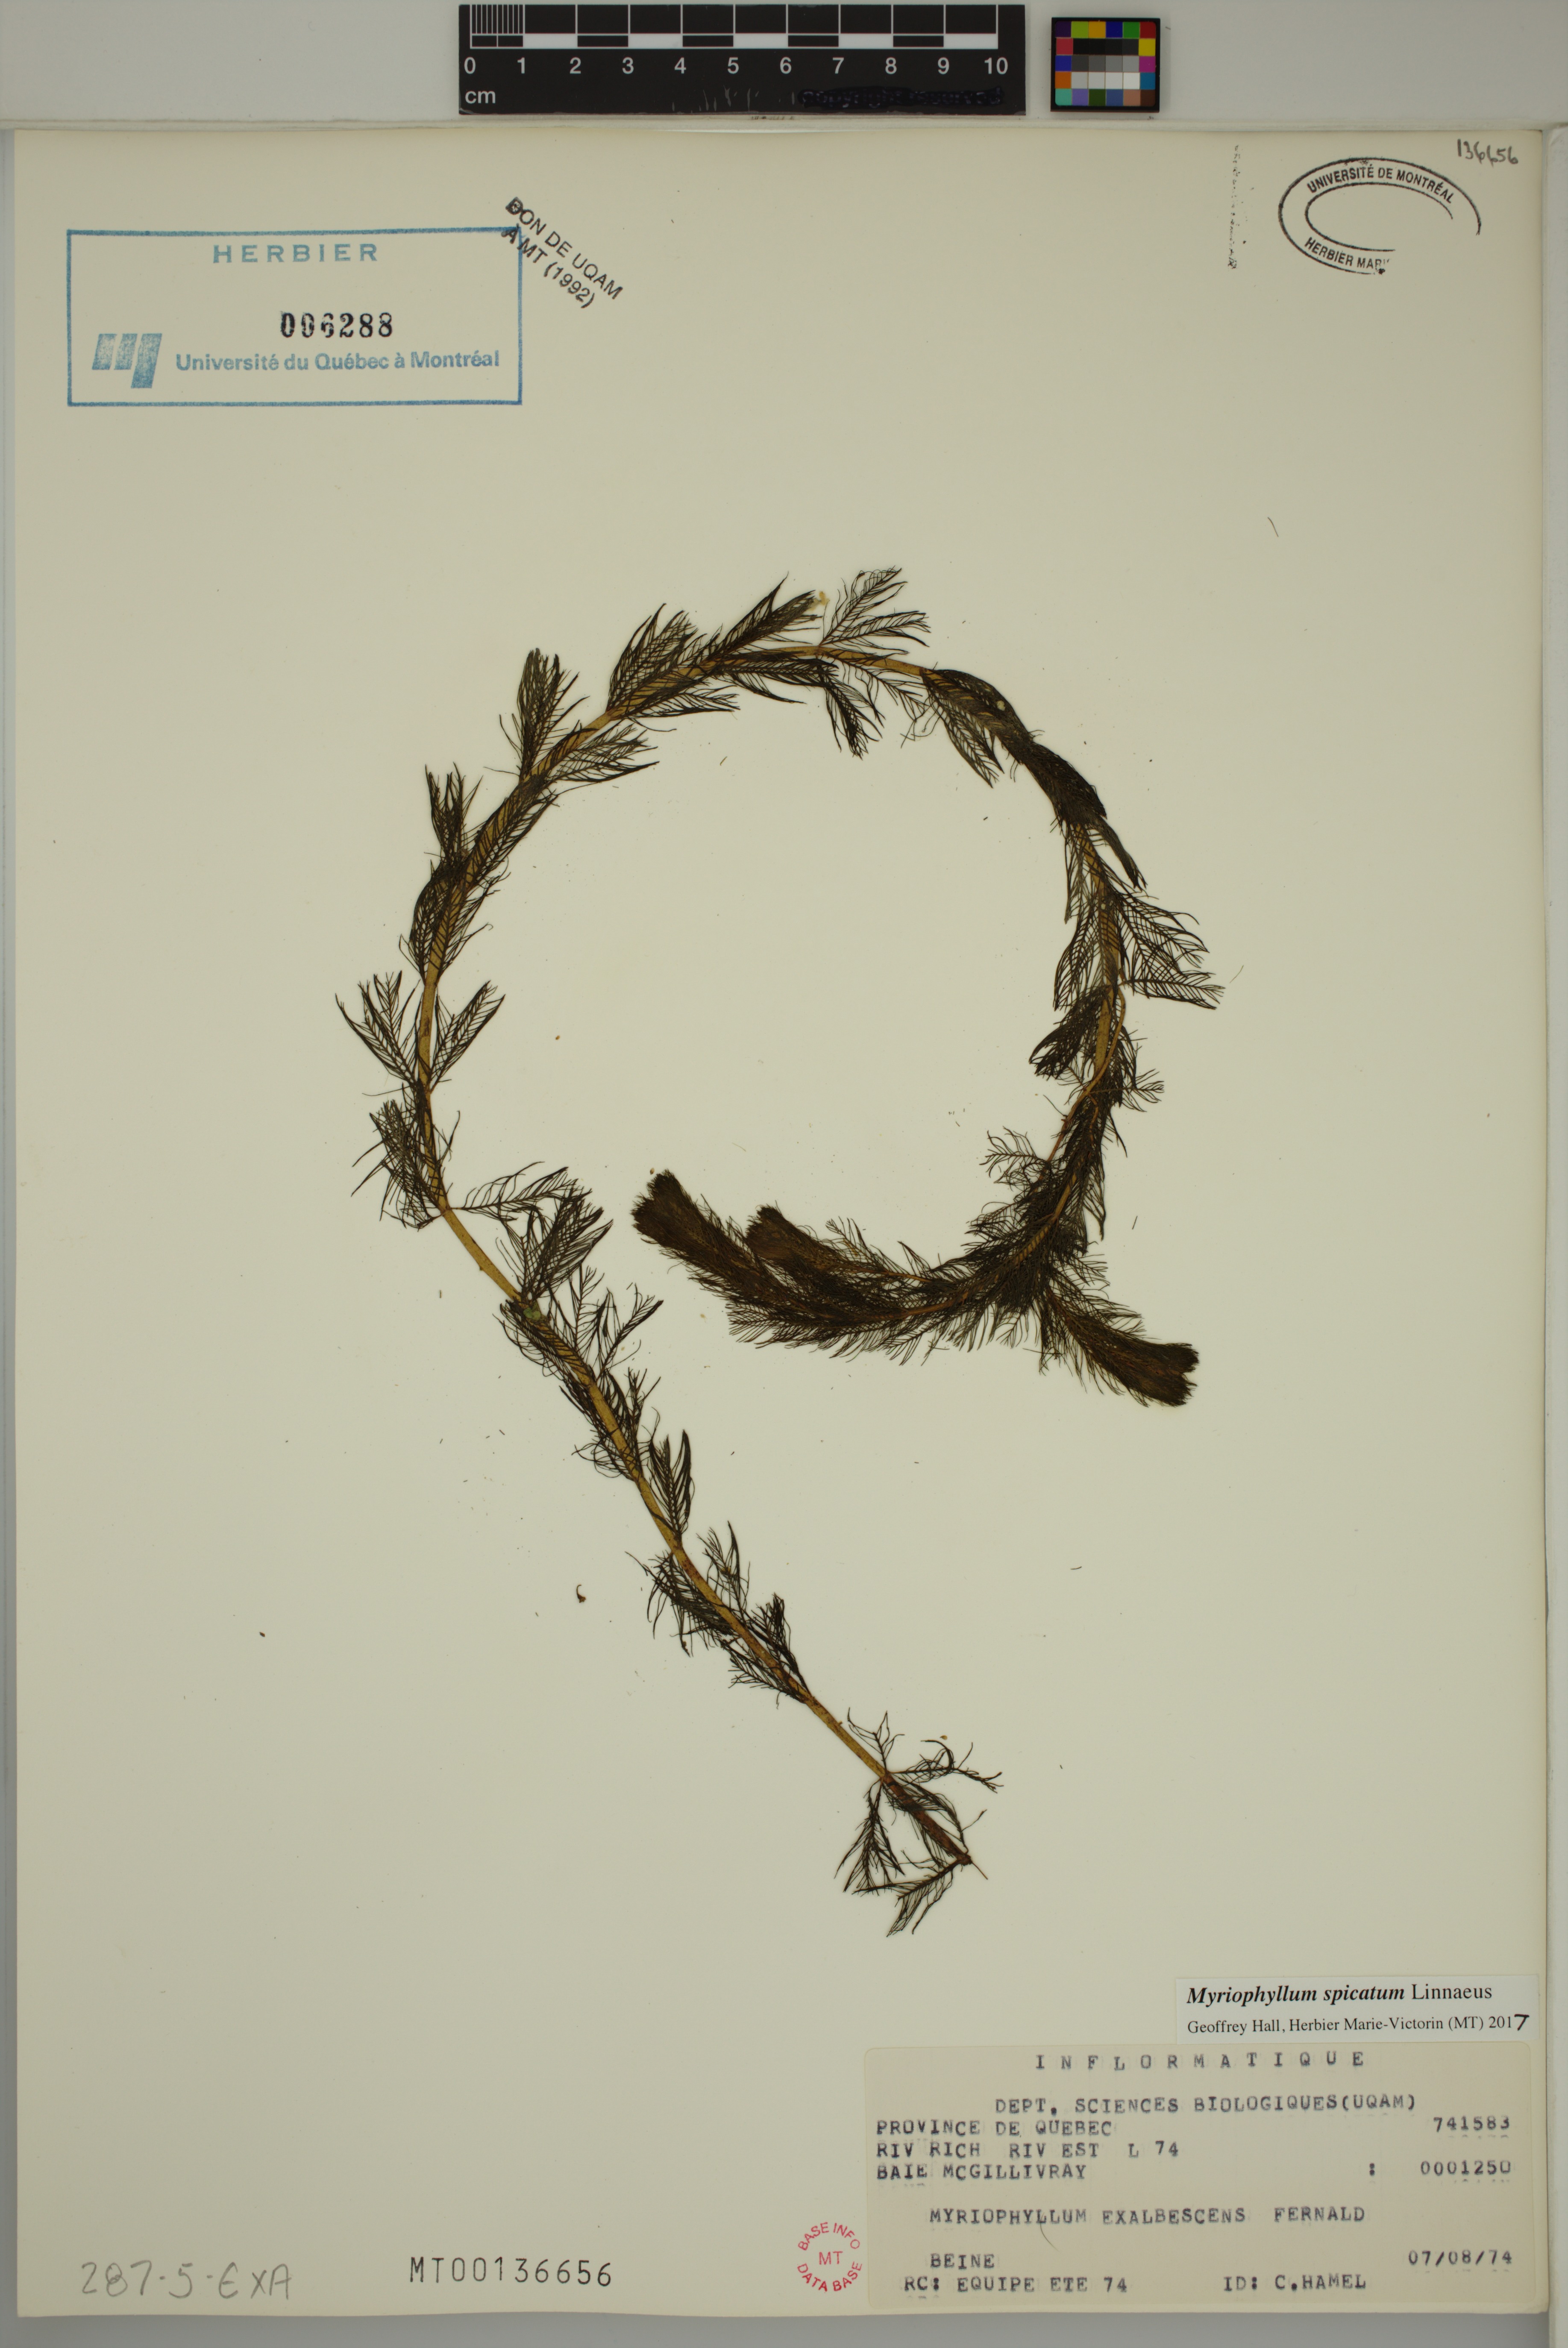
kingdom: Plantae
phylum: Tracheophyta
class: Magnoliopsida
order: Saxifragales
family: Haloragaceae
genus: Myriophyllum
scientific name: Myriophyllum spicatum
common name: Spiked water-milfoil
